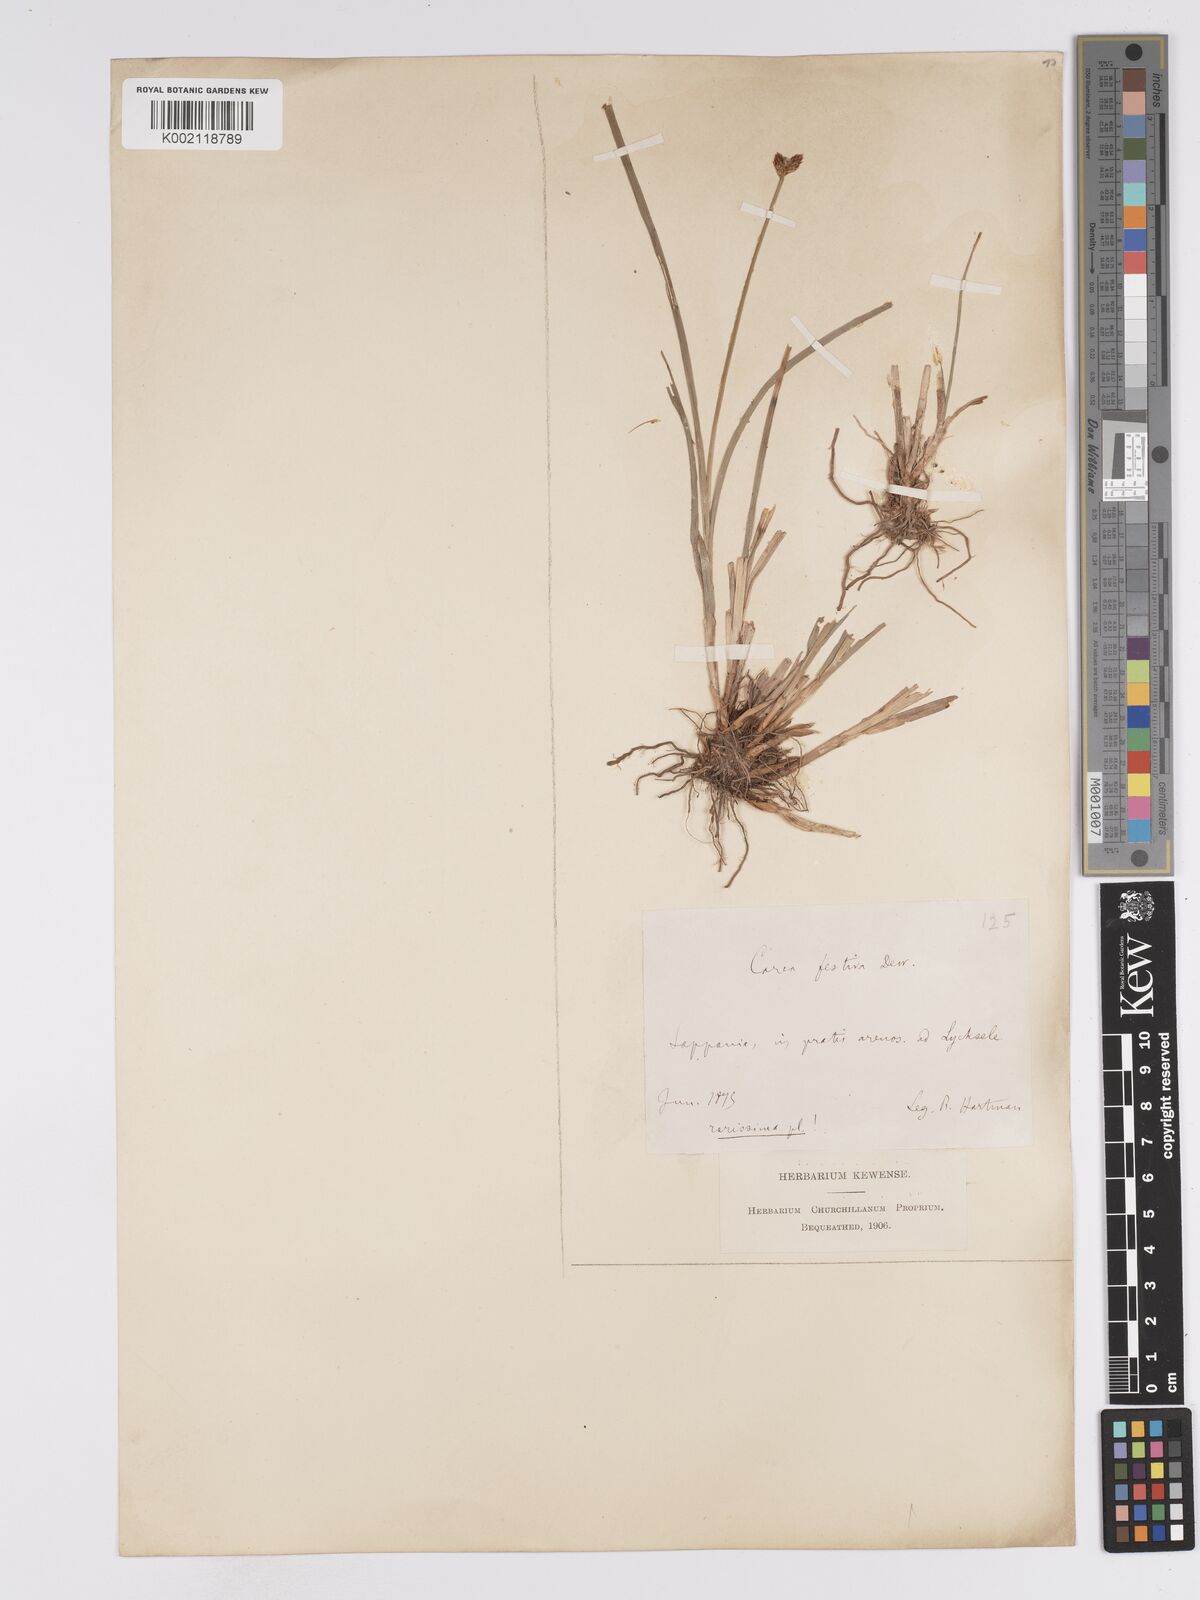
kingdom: Plantae
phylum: Tracheophyta
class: Liliopsida
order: Poales
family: Cyperaceae
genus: Carex
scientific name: Carex macloviana
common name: Falkland island sedge
